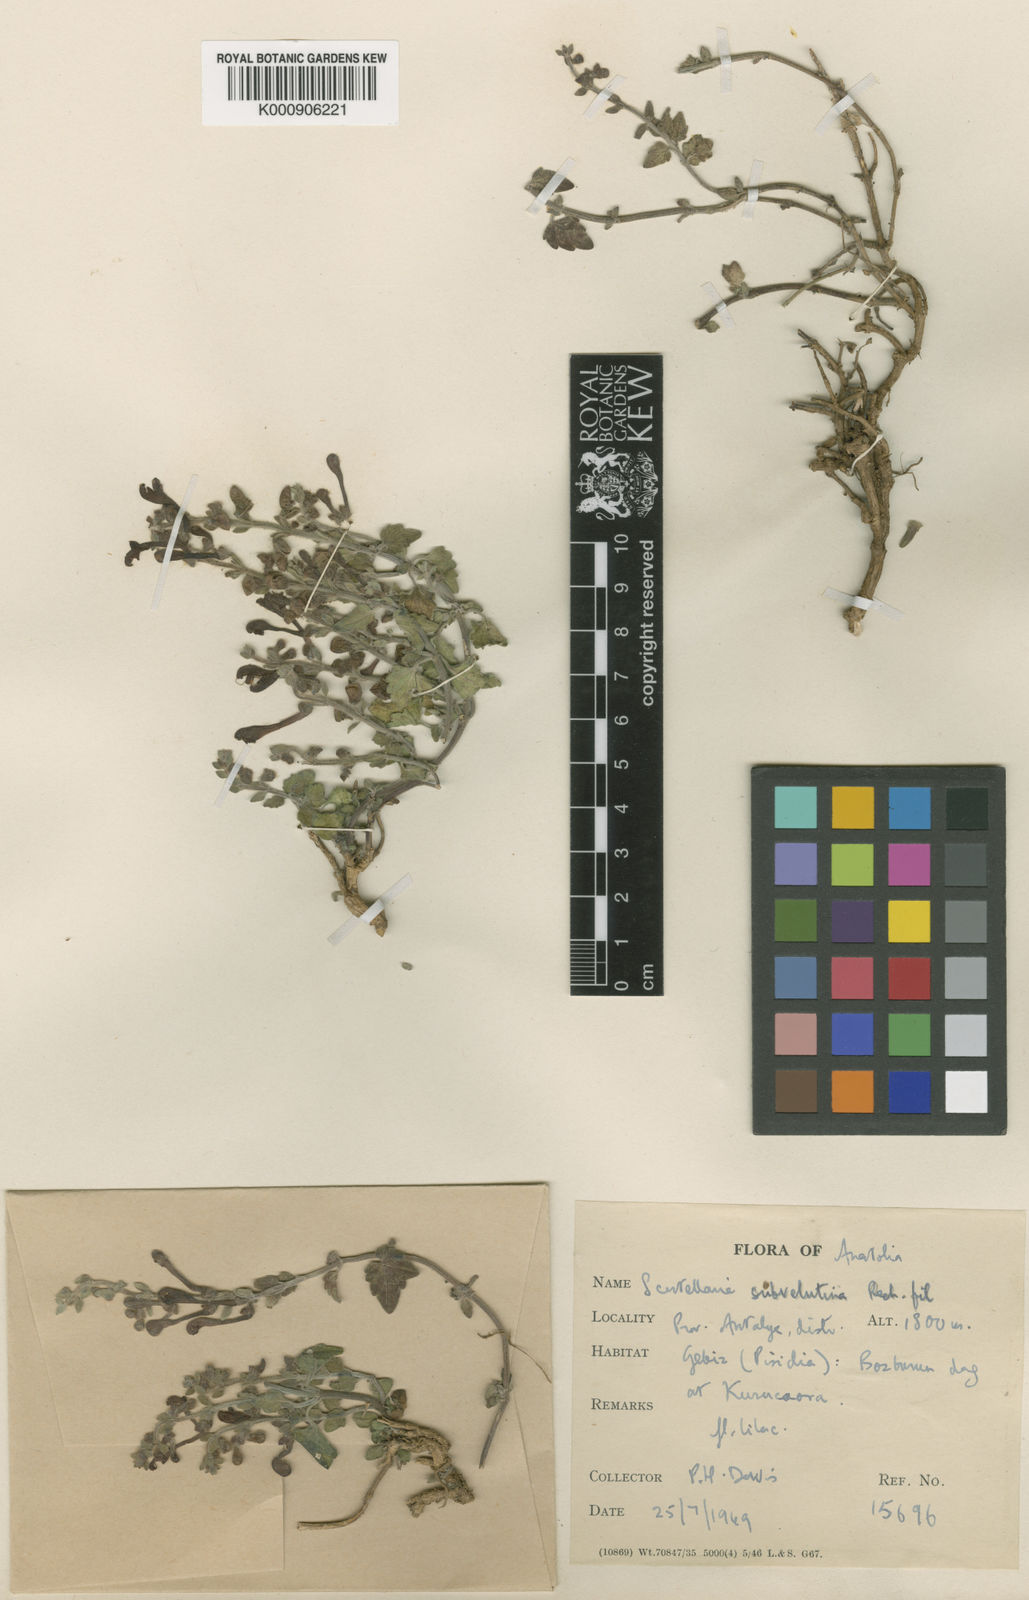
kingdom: Plantae
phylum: Tracheophyta
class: Magnoliopsida
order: Lamiales
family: Lamiaceae
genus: Scutellaria
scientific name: Scutellaria columnae
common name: Large skullcap
